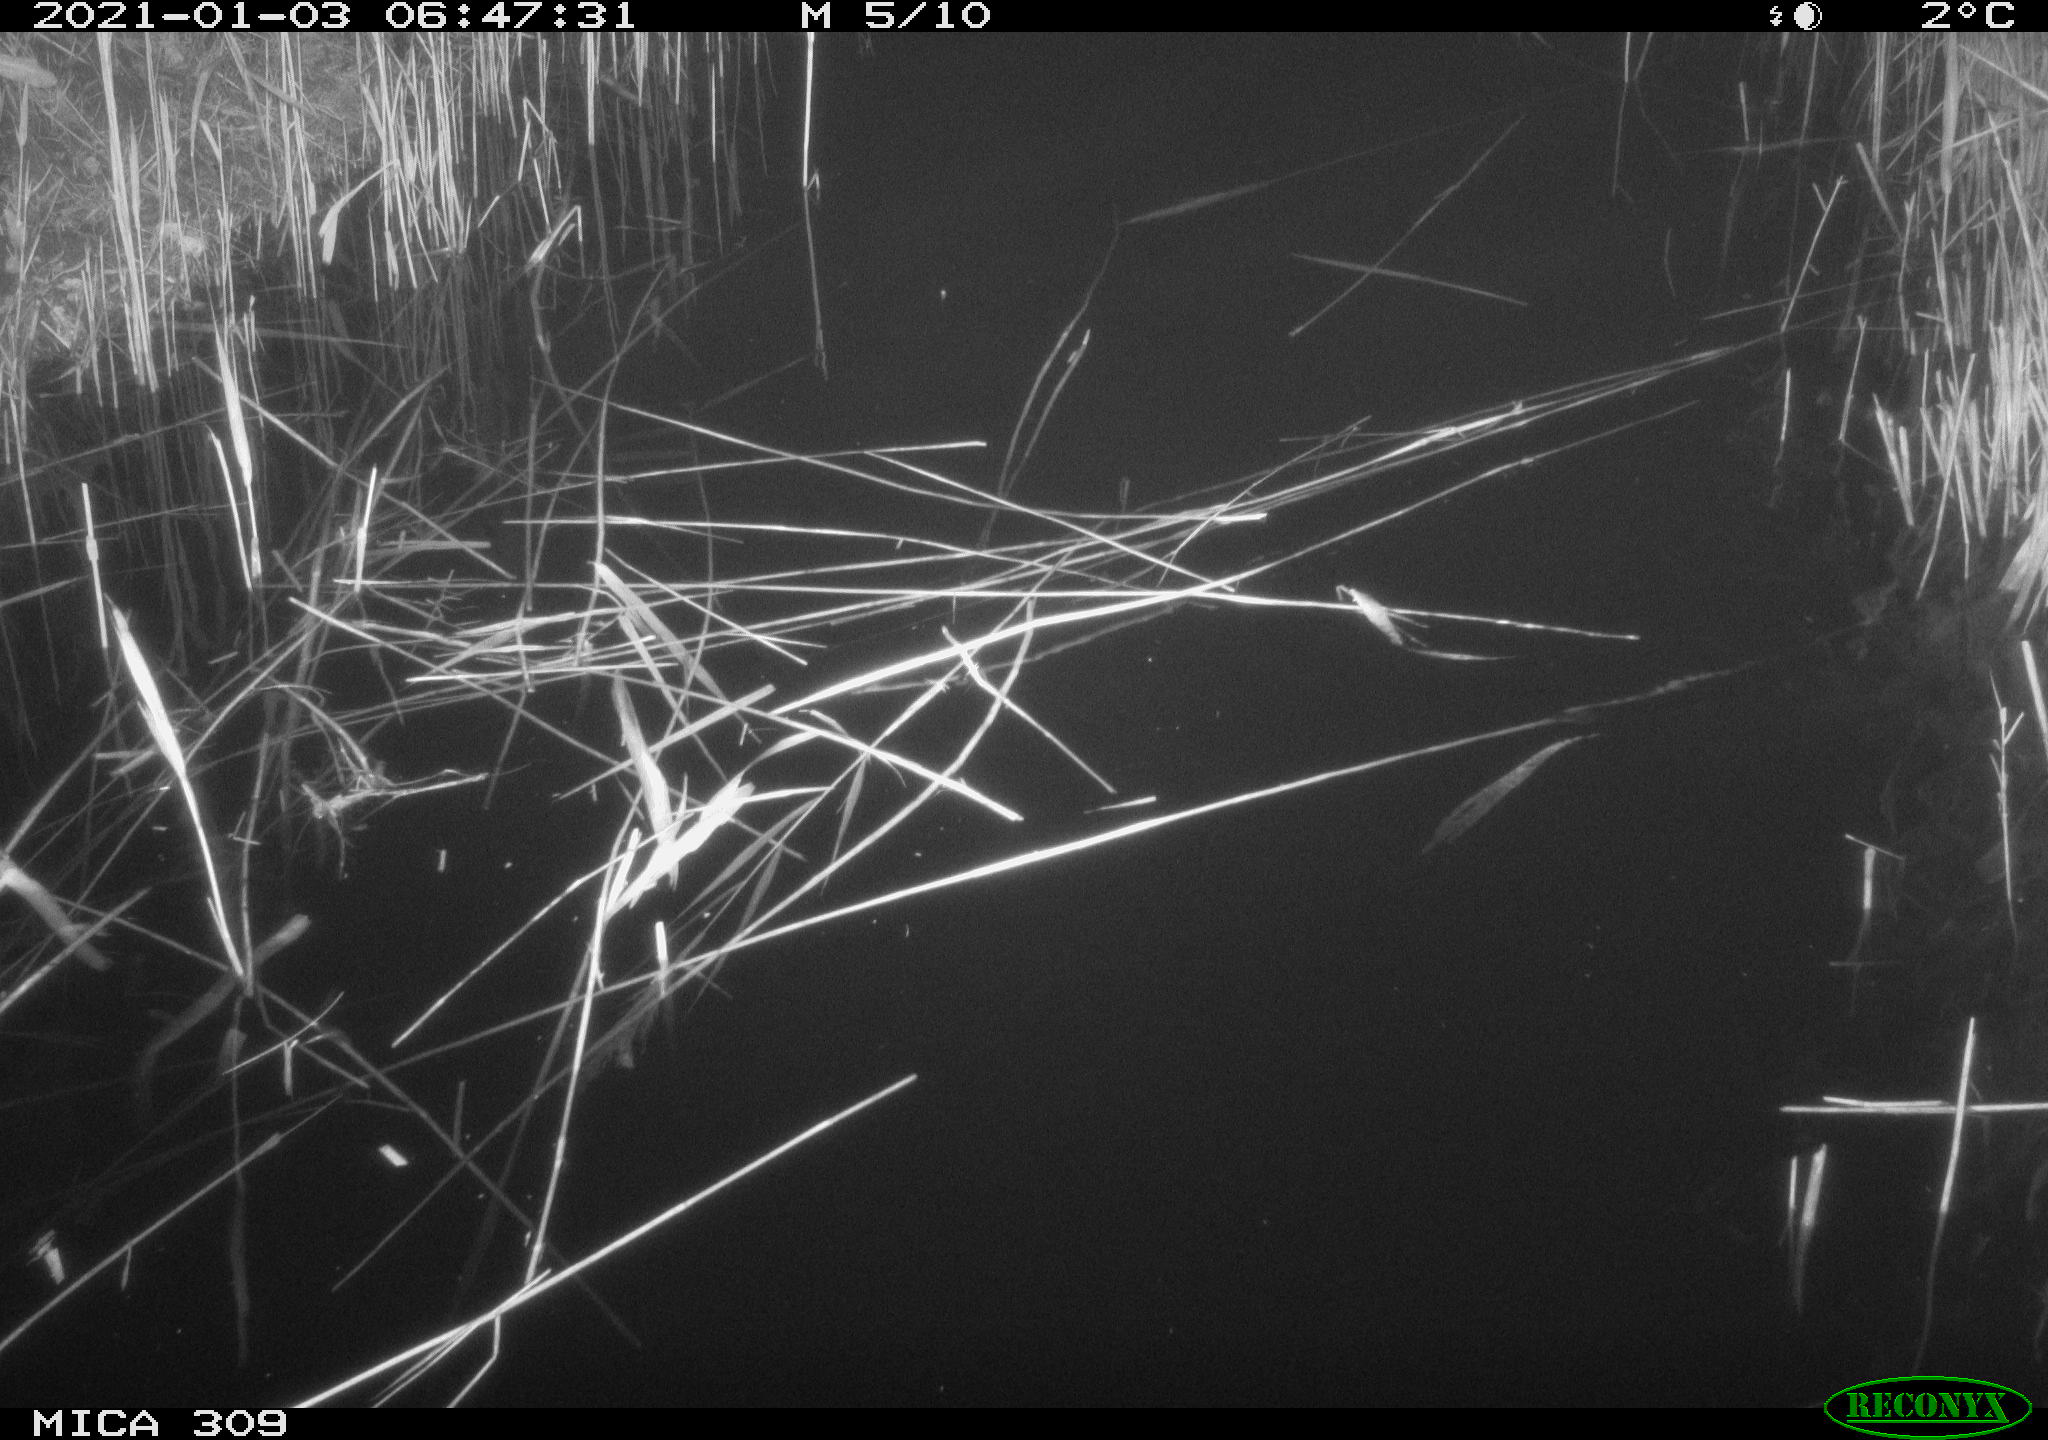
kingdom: Animalia
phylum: Chordata
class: Mammalia
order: Rodentia
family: Cricetidae
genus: Ondatra
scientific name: Ondatra zibethicus
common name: Muskrat
